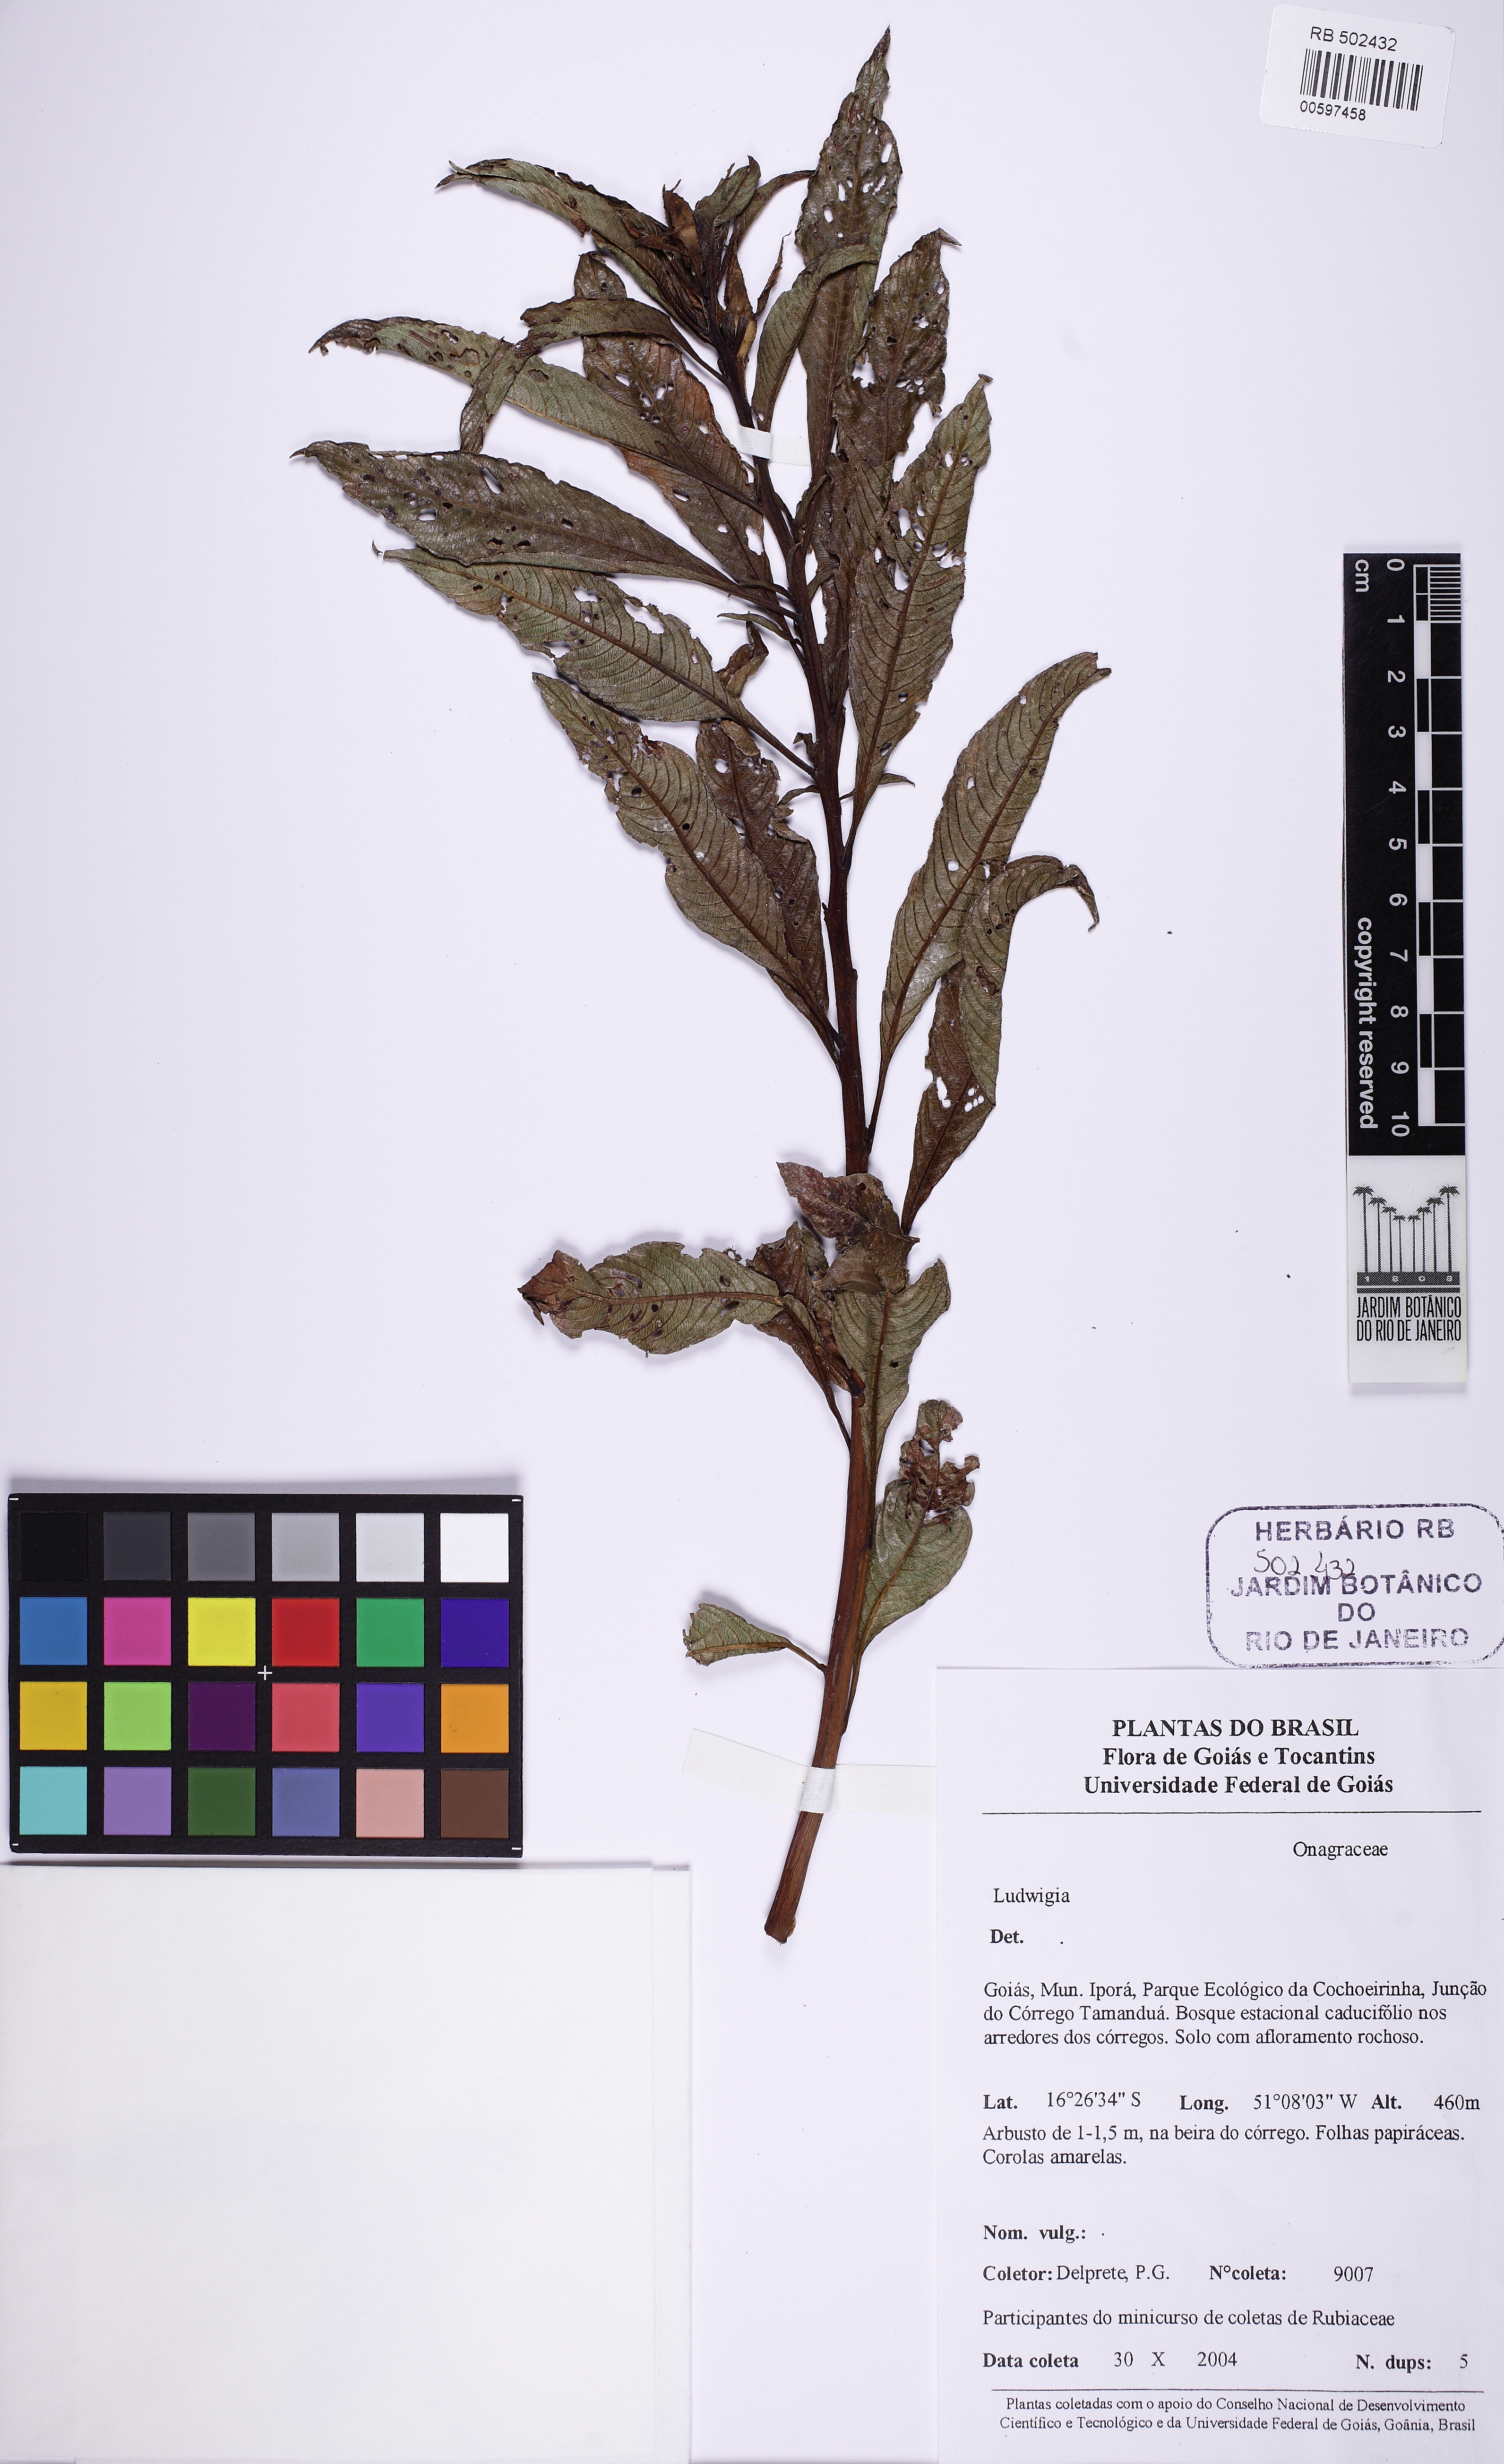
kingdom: Plantae
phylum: Tracheophyta
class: Magnoliopsida
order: Myrtales
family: Onagraceae
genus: Ludwigia
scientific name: Ludwigia
